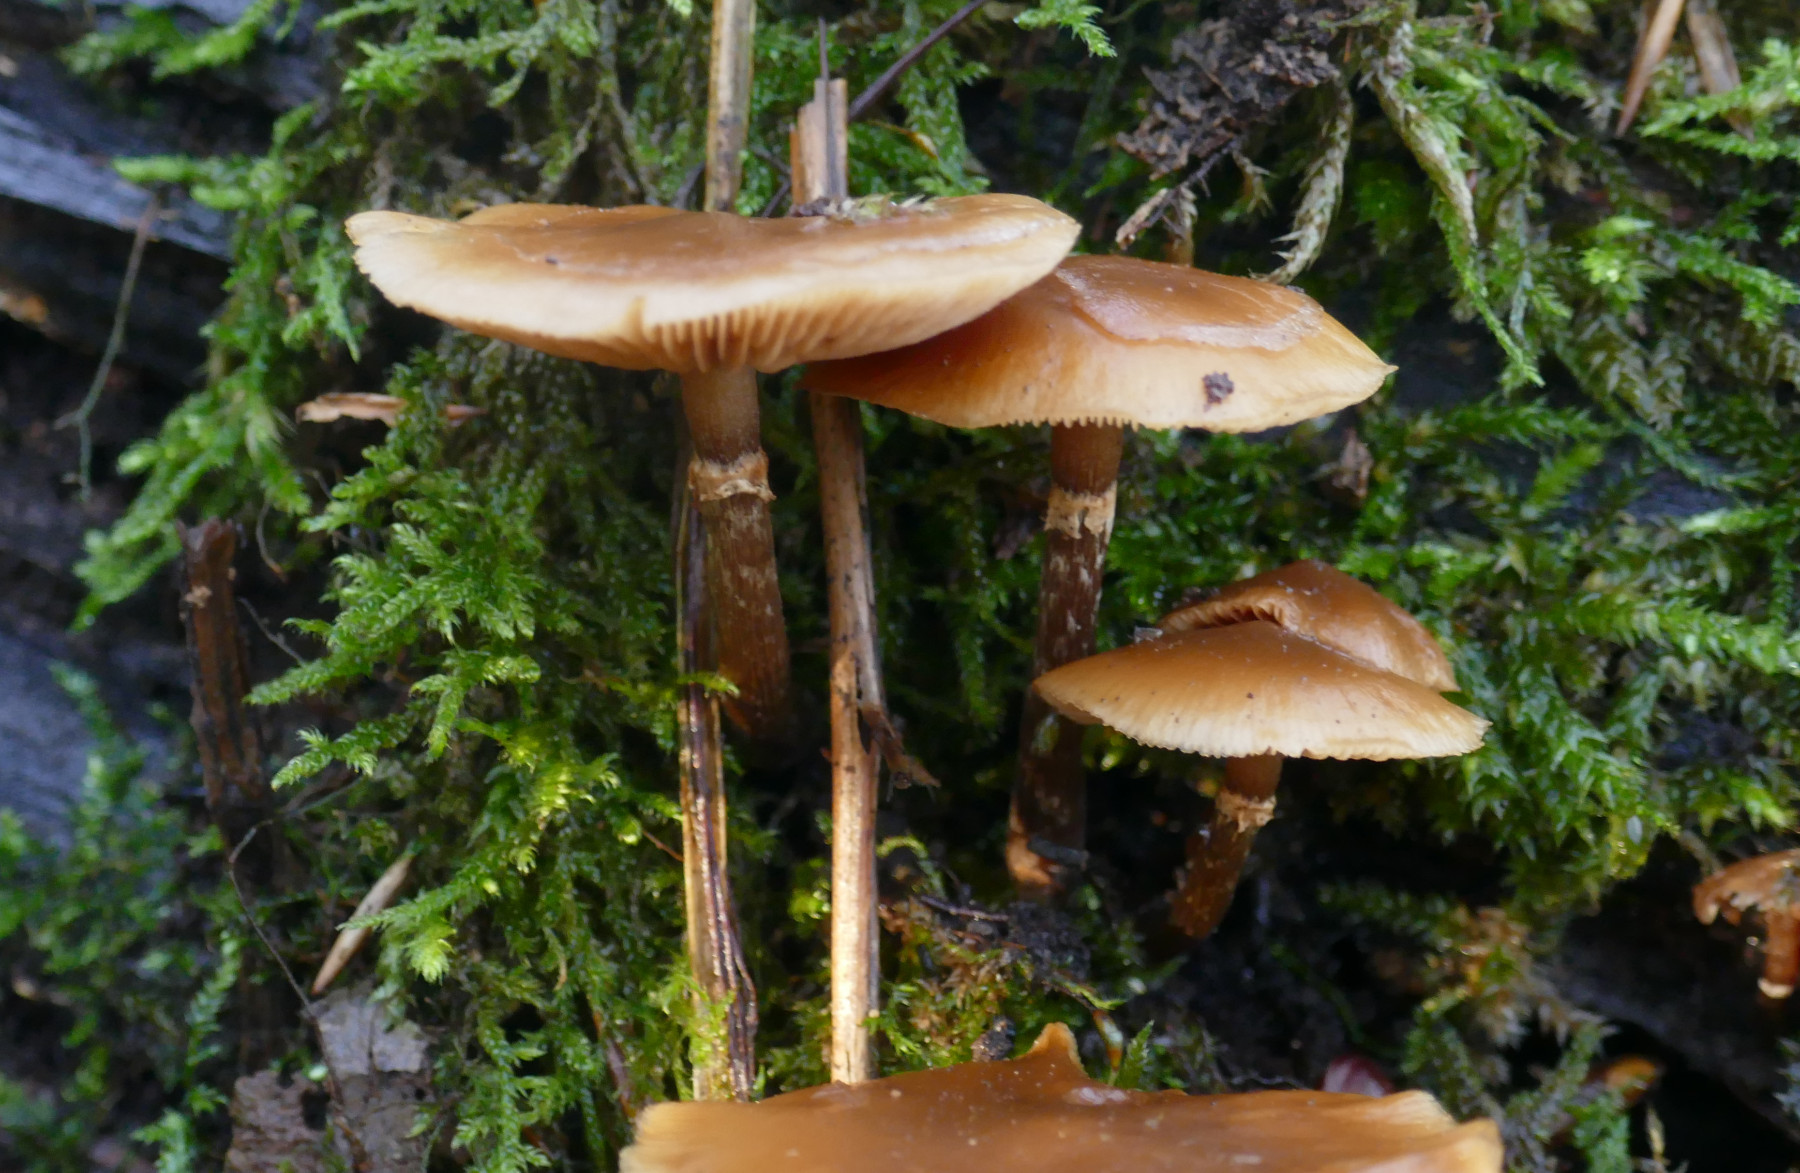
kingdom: Fungi
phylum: Basidiomycota
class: Agaricomycetes
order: Agaricales
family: Hymenogastraceae
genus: Galerina
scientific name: Galerina marginata
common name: randbæltet hjelmhat
